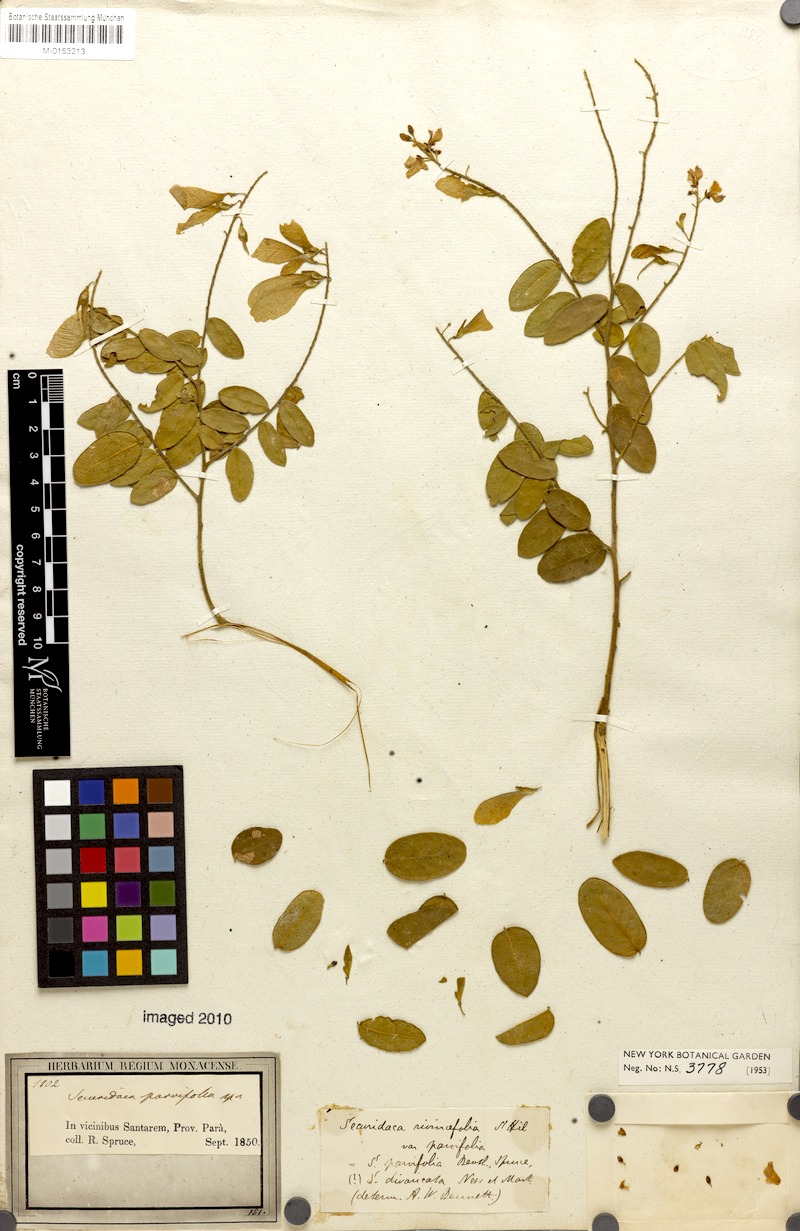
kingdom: Plantae
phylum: Tracheophyta
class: Magnoliopsida
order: Fabales
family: Polygalaceae
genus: Securidaca
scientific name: Securidaca divaricata
